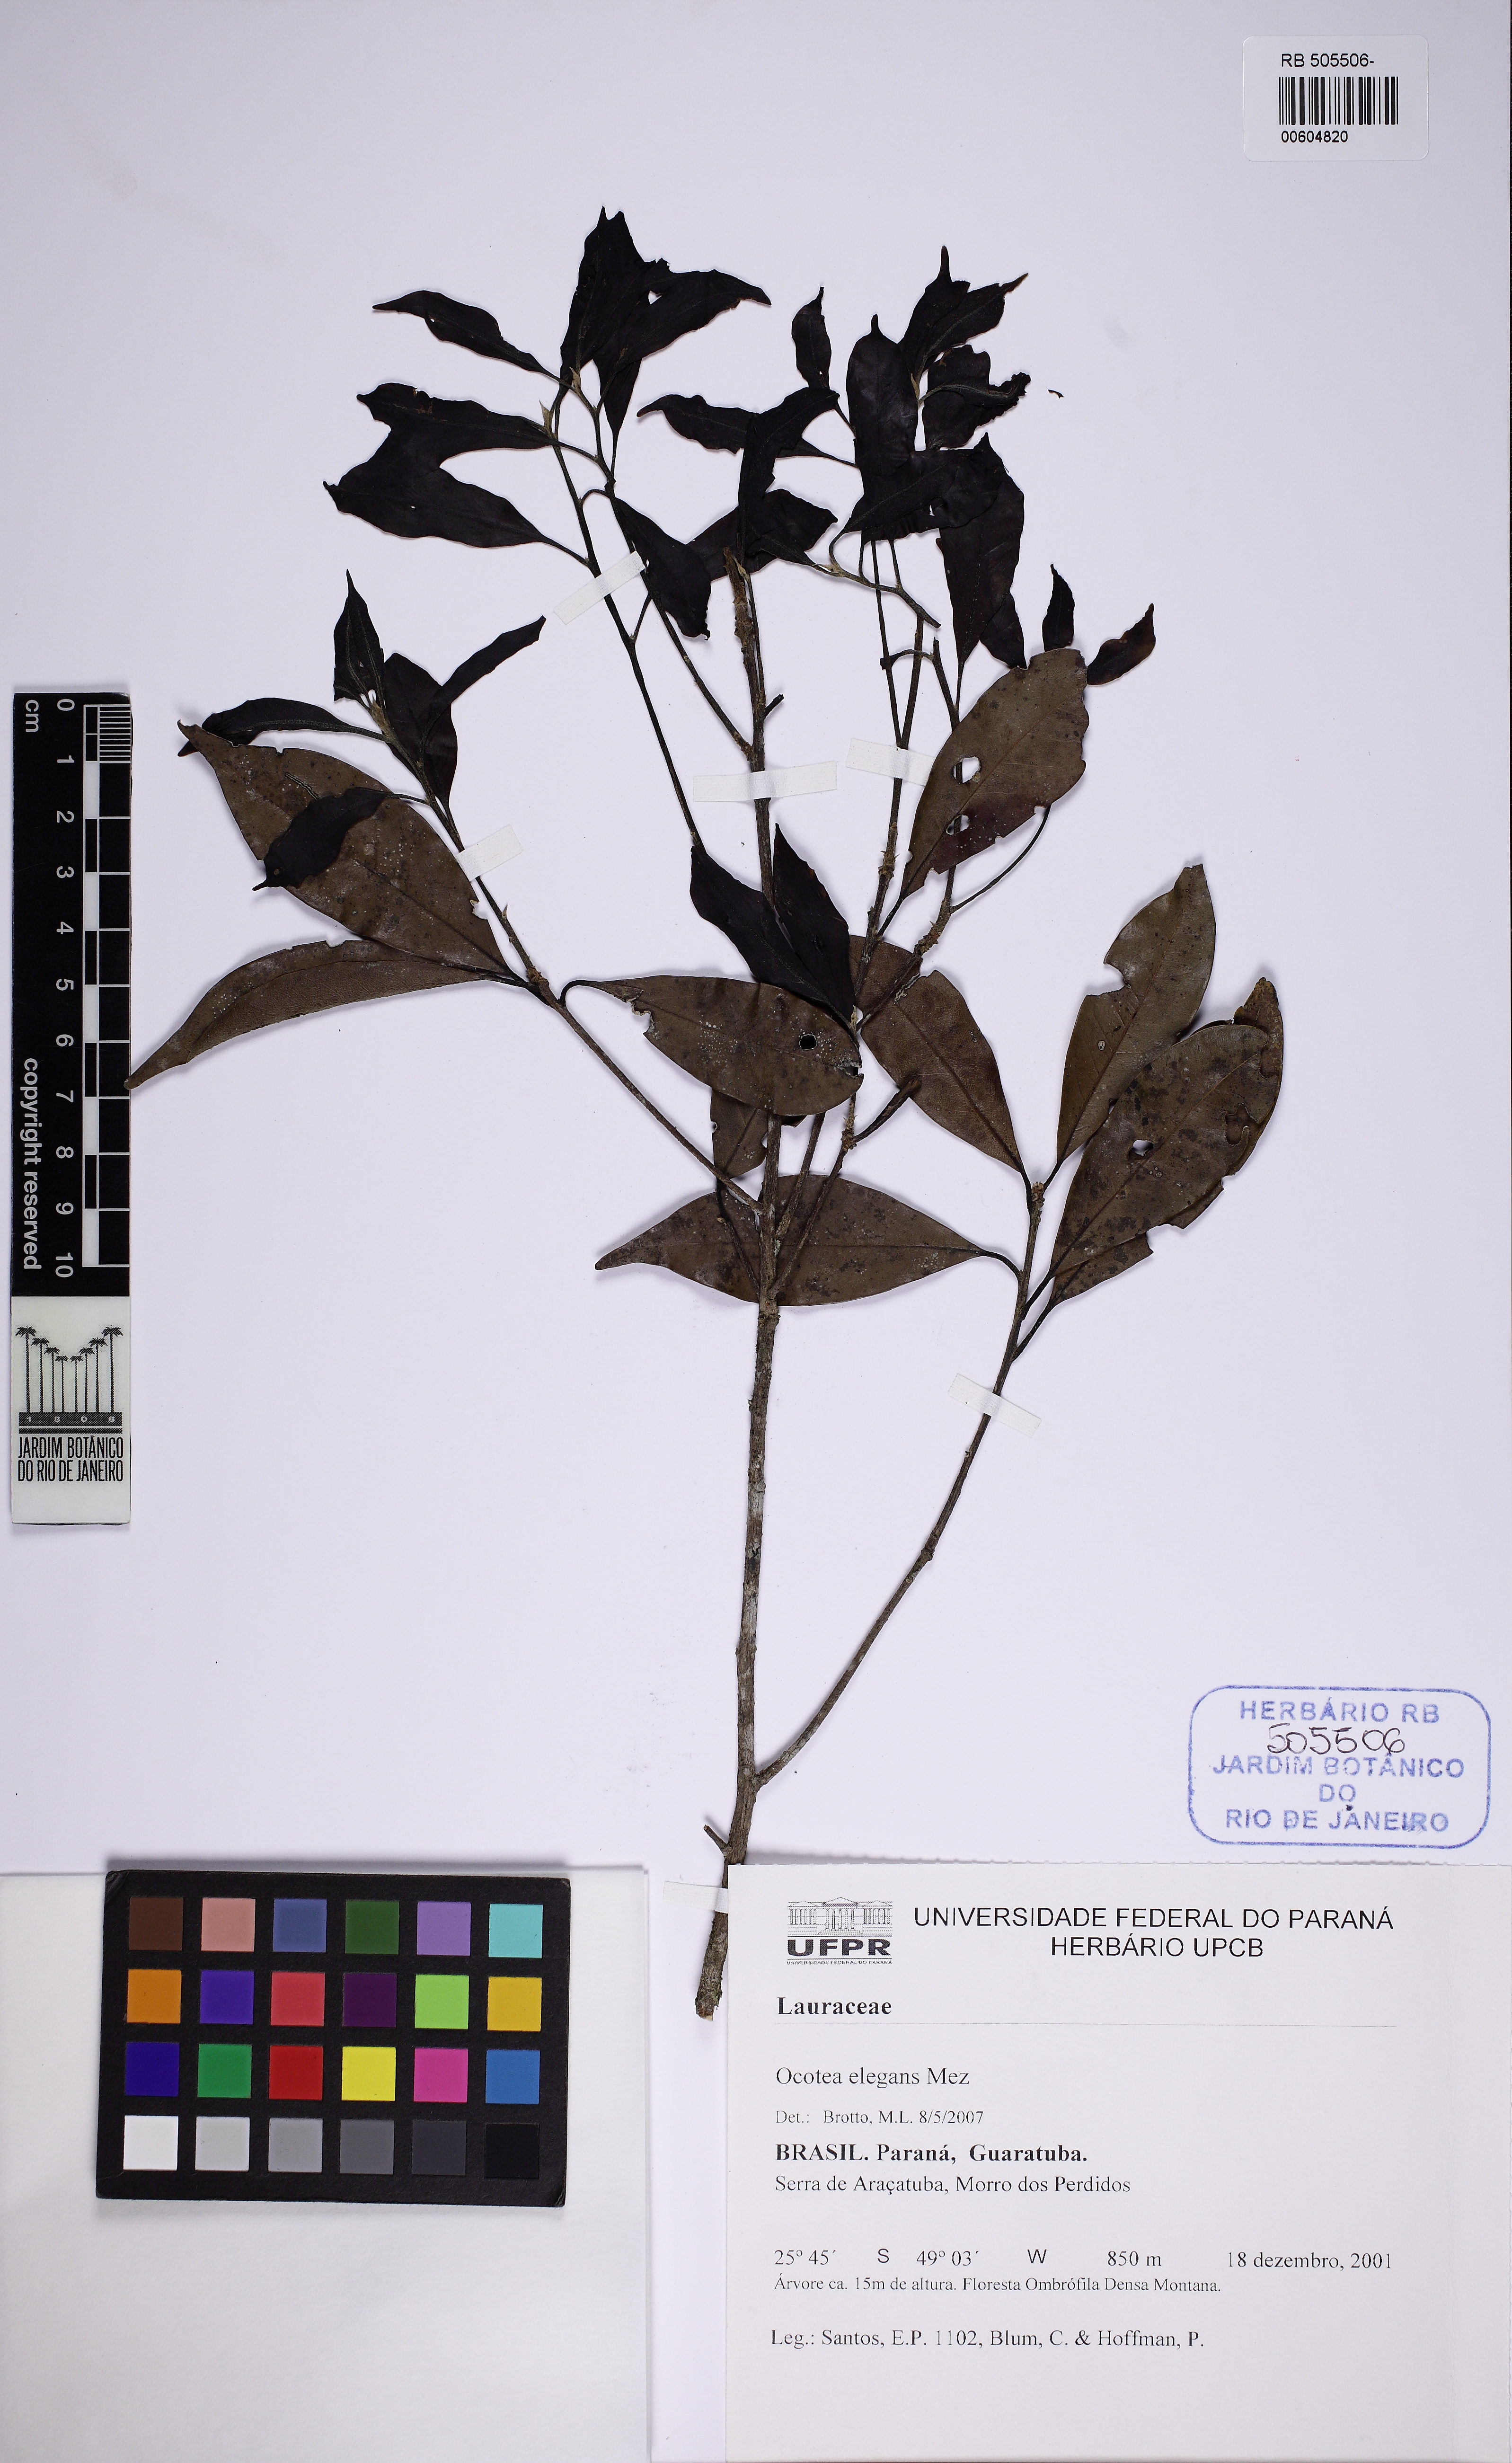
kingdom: Plantae
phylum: Tracheophyta
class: Magnoliopsida
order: Laurales
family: Lauraceae
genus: Ocotea
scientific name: Ocotea elegans
